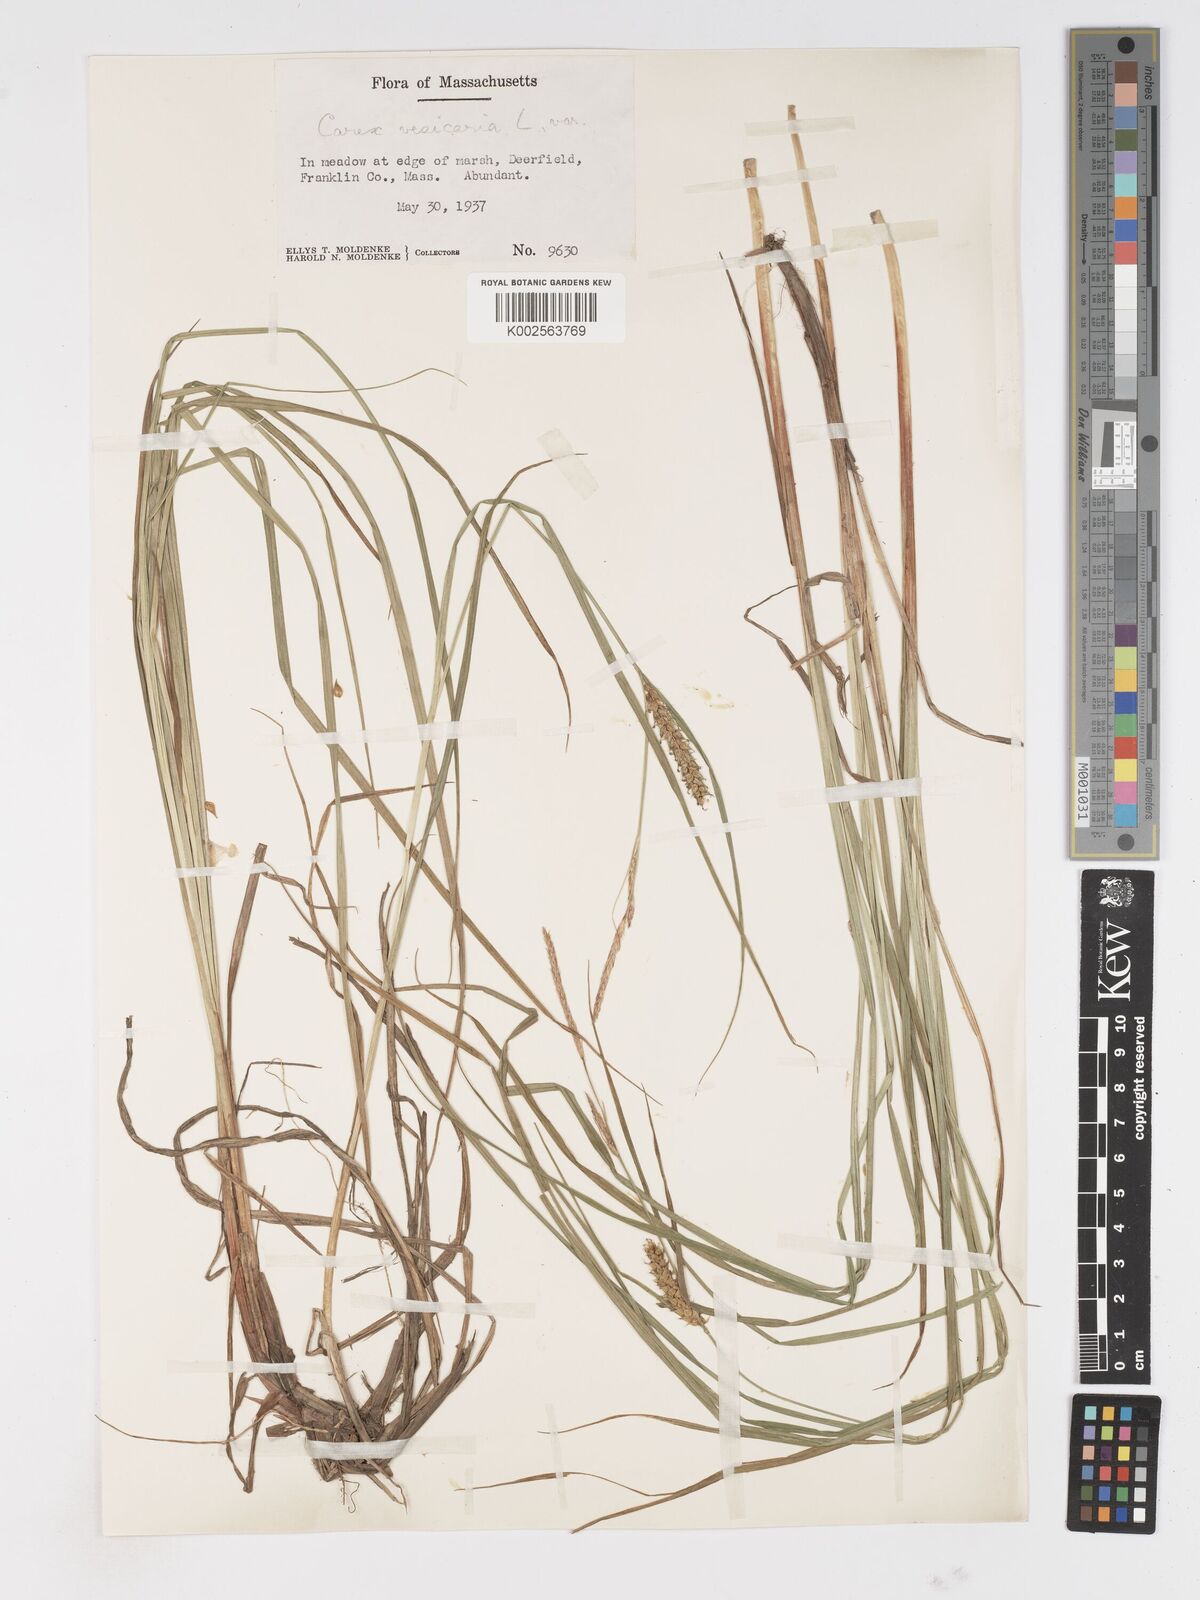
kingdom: Plantae
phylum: Tracheophyta
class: Liliopsida
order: Poales
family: Cyperaceae
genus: Carex
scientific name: Carex vesicaria
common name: Bladder-sedge
